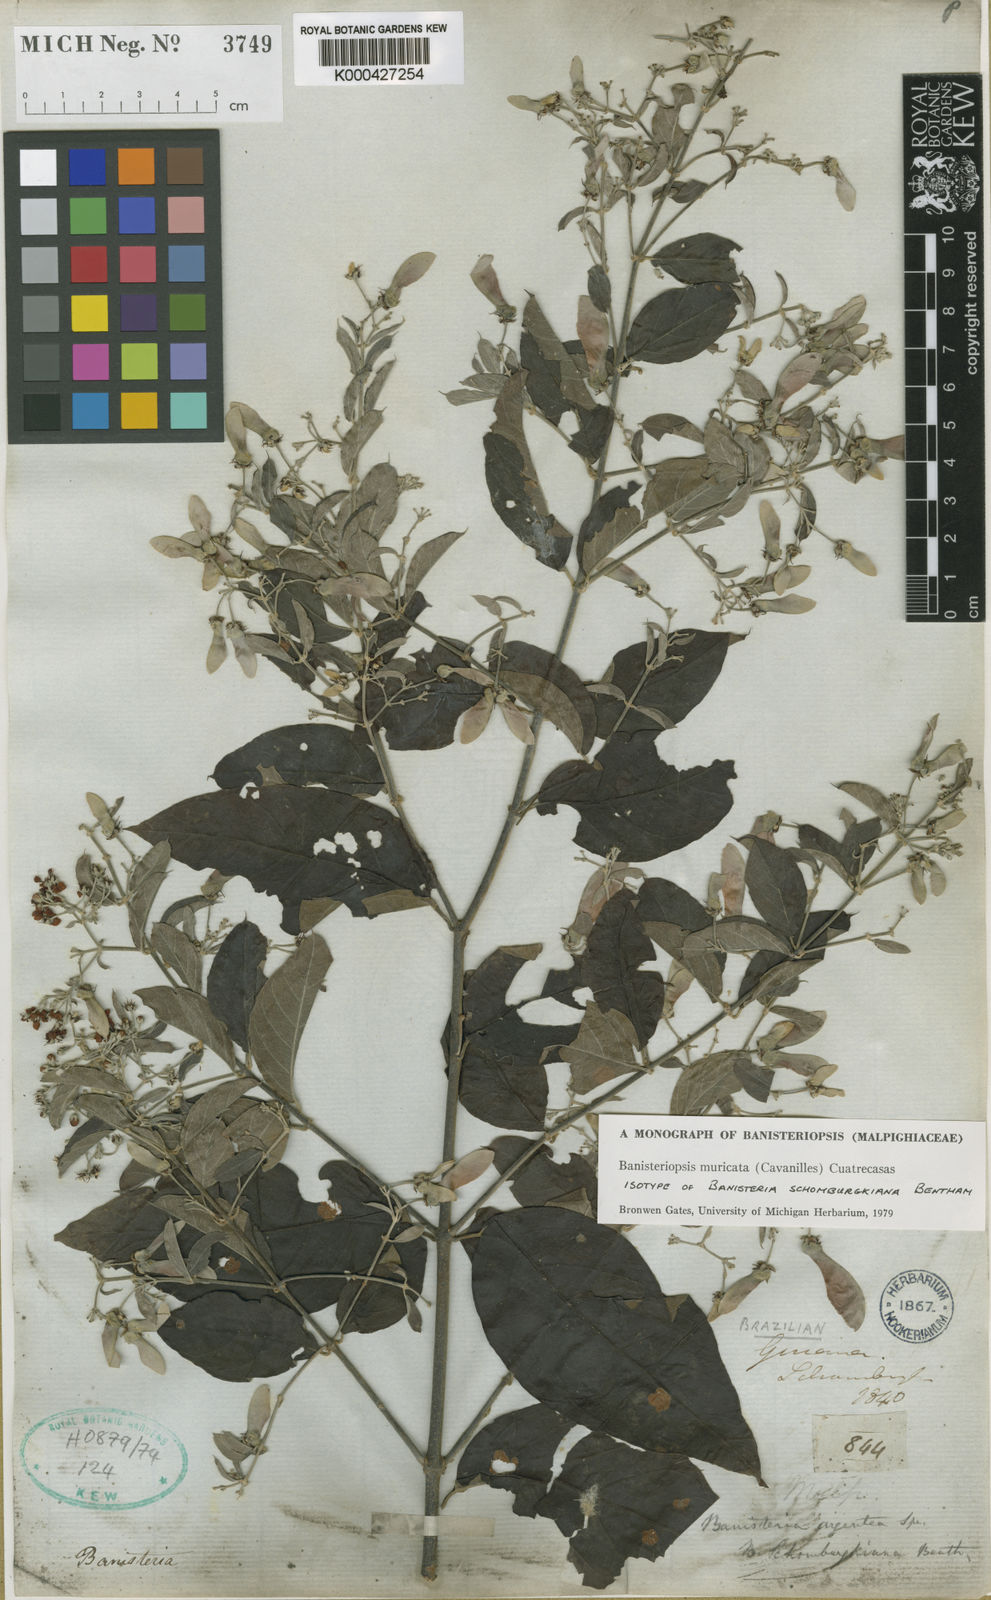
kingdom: Plantae
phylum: Tracheophyta
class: Magnoliopsida
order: Malpighiales
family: Malpighiaceae
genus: Banisteriopsis
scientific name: Banisteriopsis muricata
